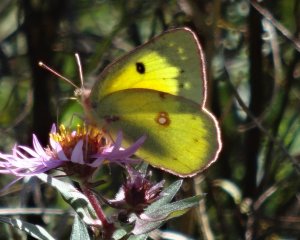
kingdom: Animalia
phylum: Arthropoda
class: Insecta
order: Lepidoptera
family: Pieridae
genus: Colias
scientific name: Colias philodice
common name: Clouded Sulphur
